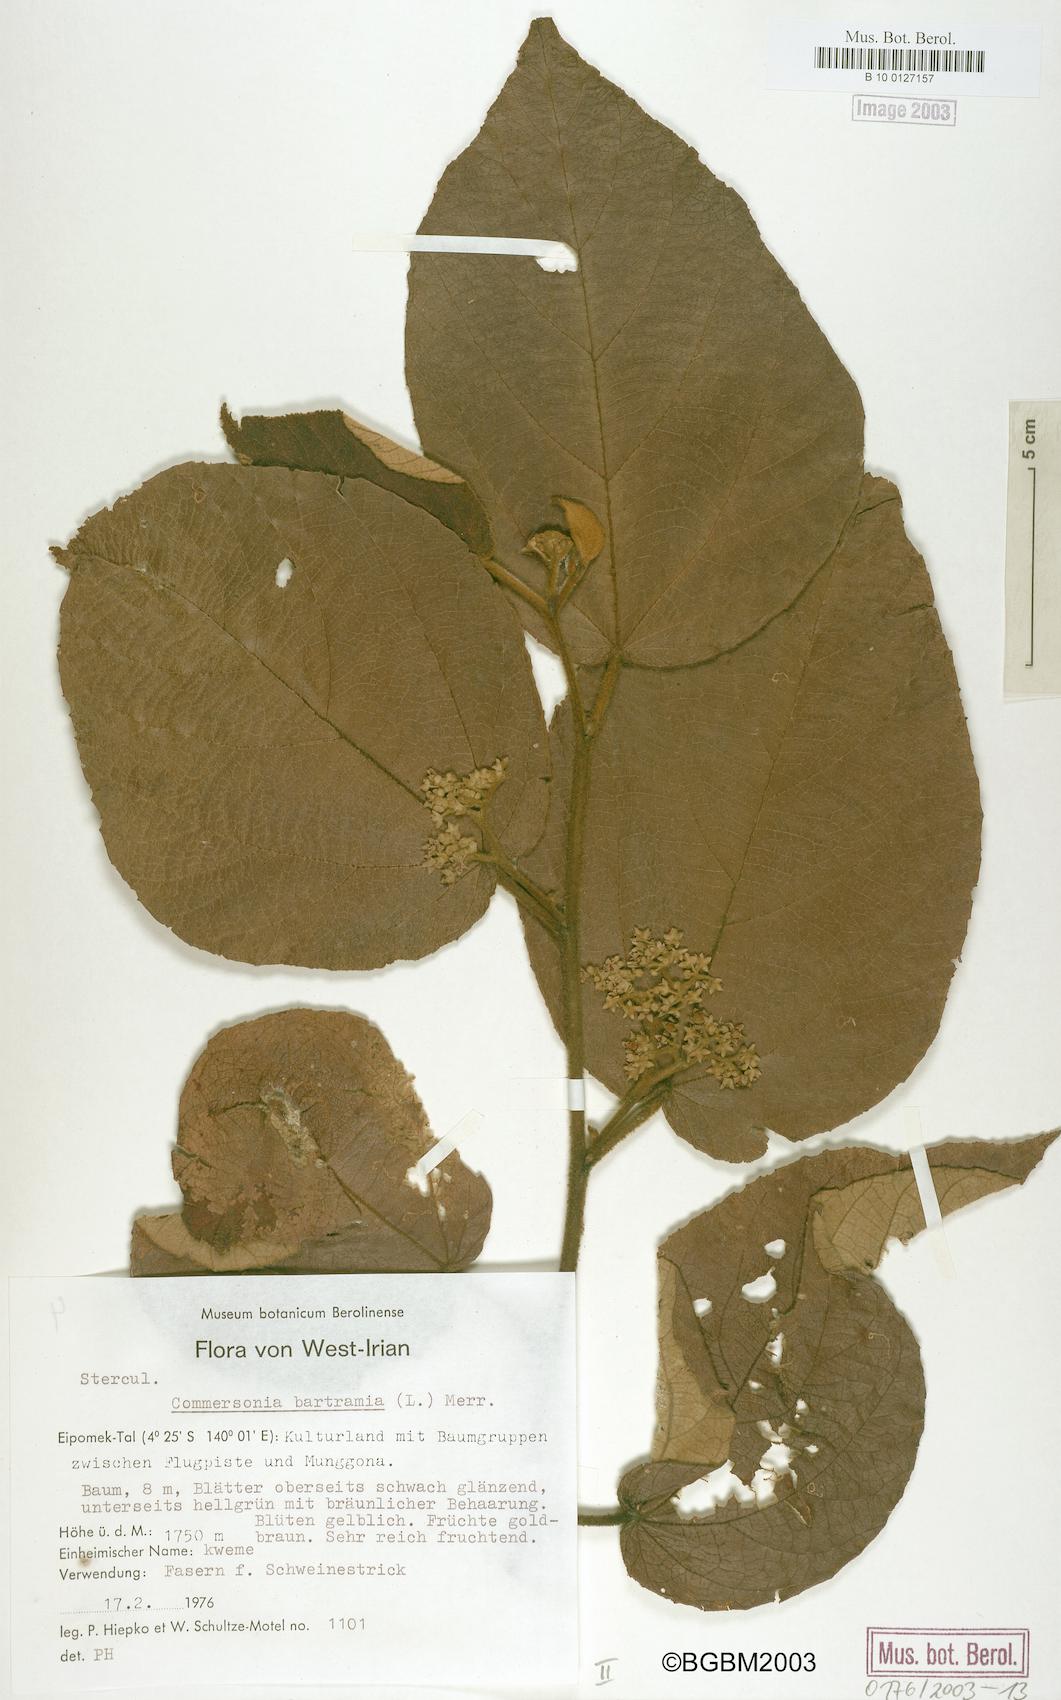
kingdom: Plantae
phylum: Tracheophyta
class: Magnoliopsida
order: Malvales
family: Malvaceae
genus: Commersonia
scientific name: Commersonia bartramia
